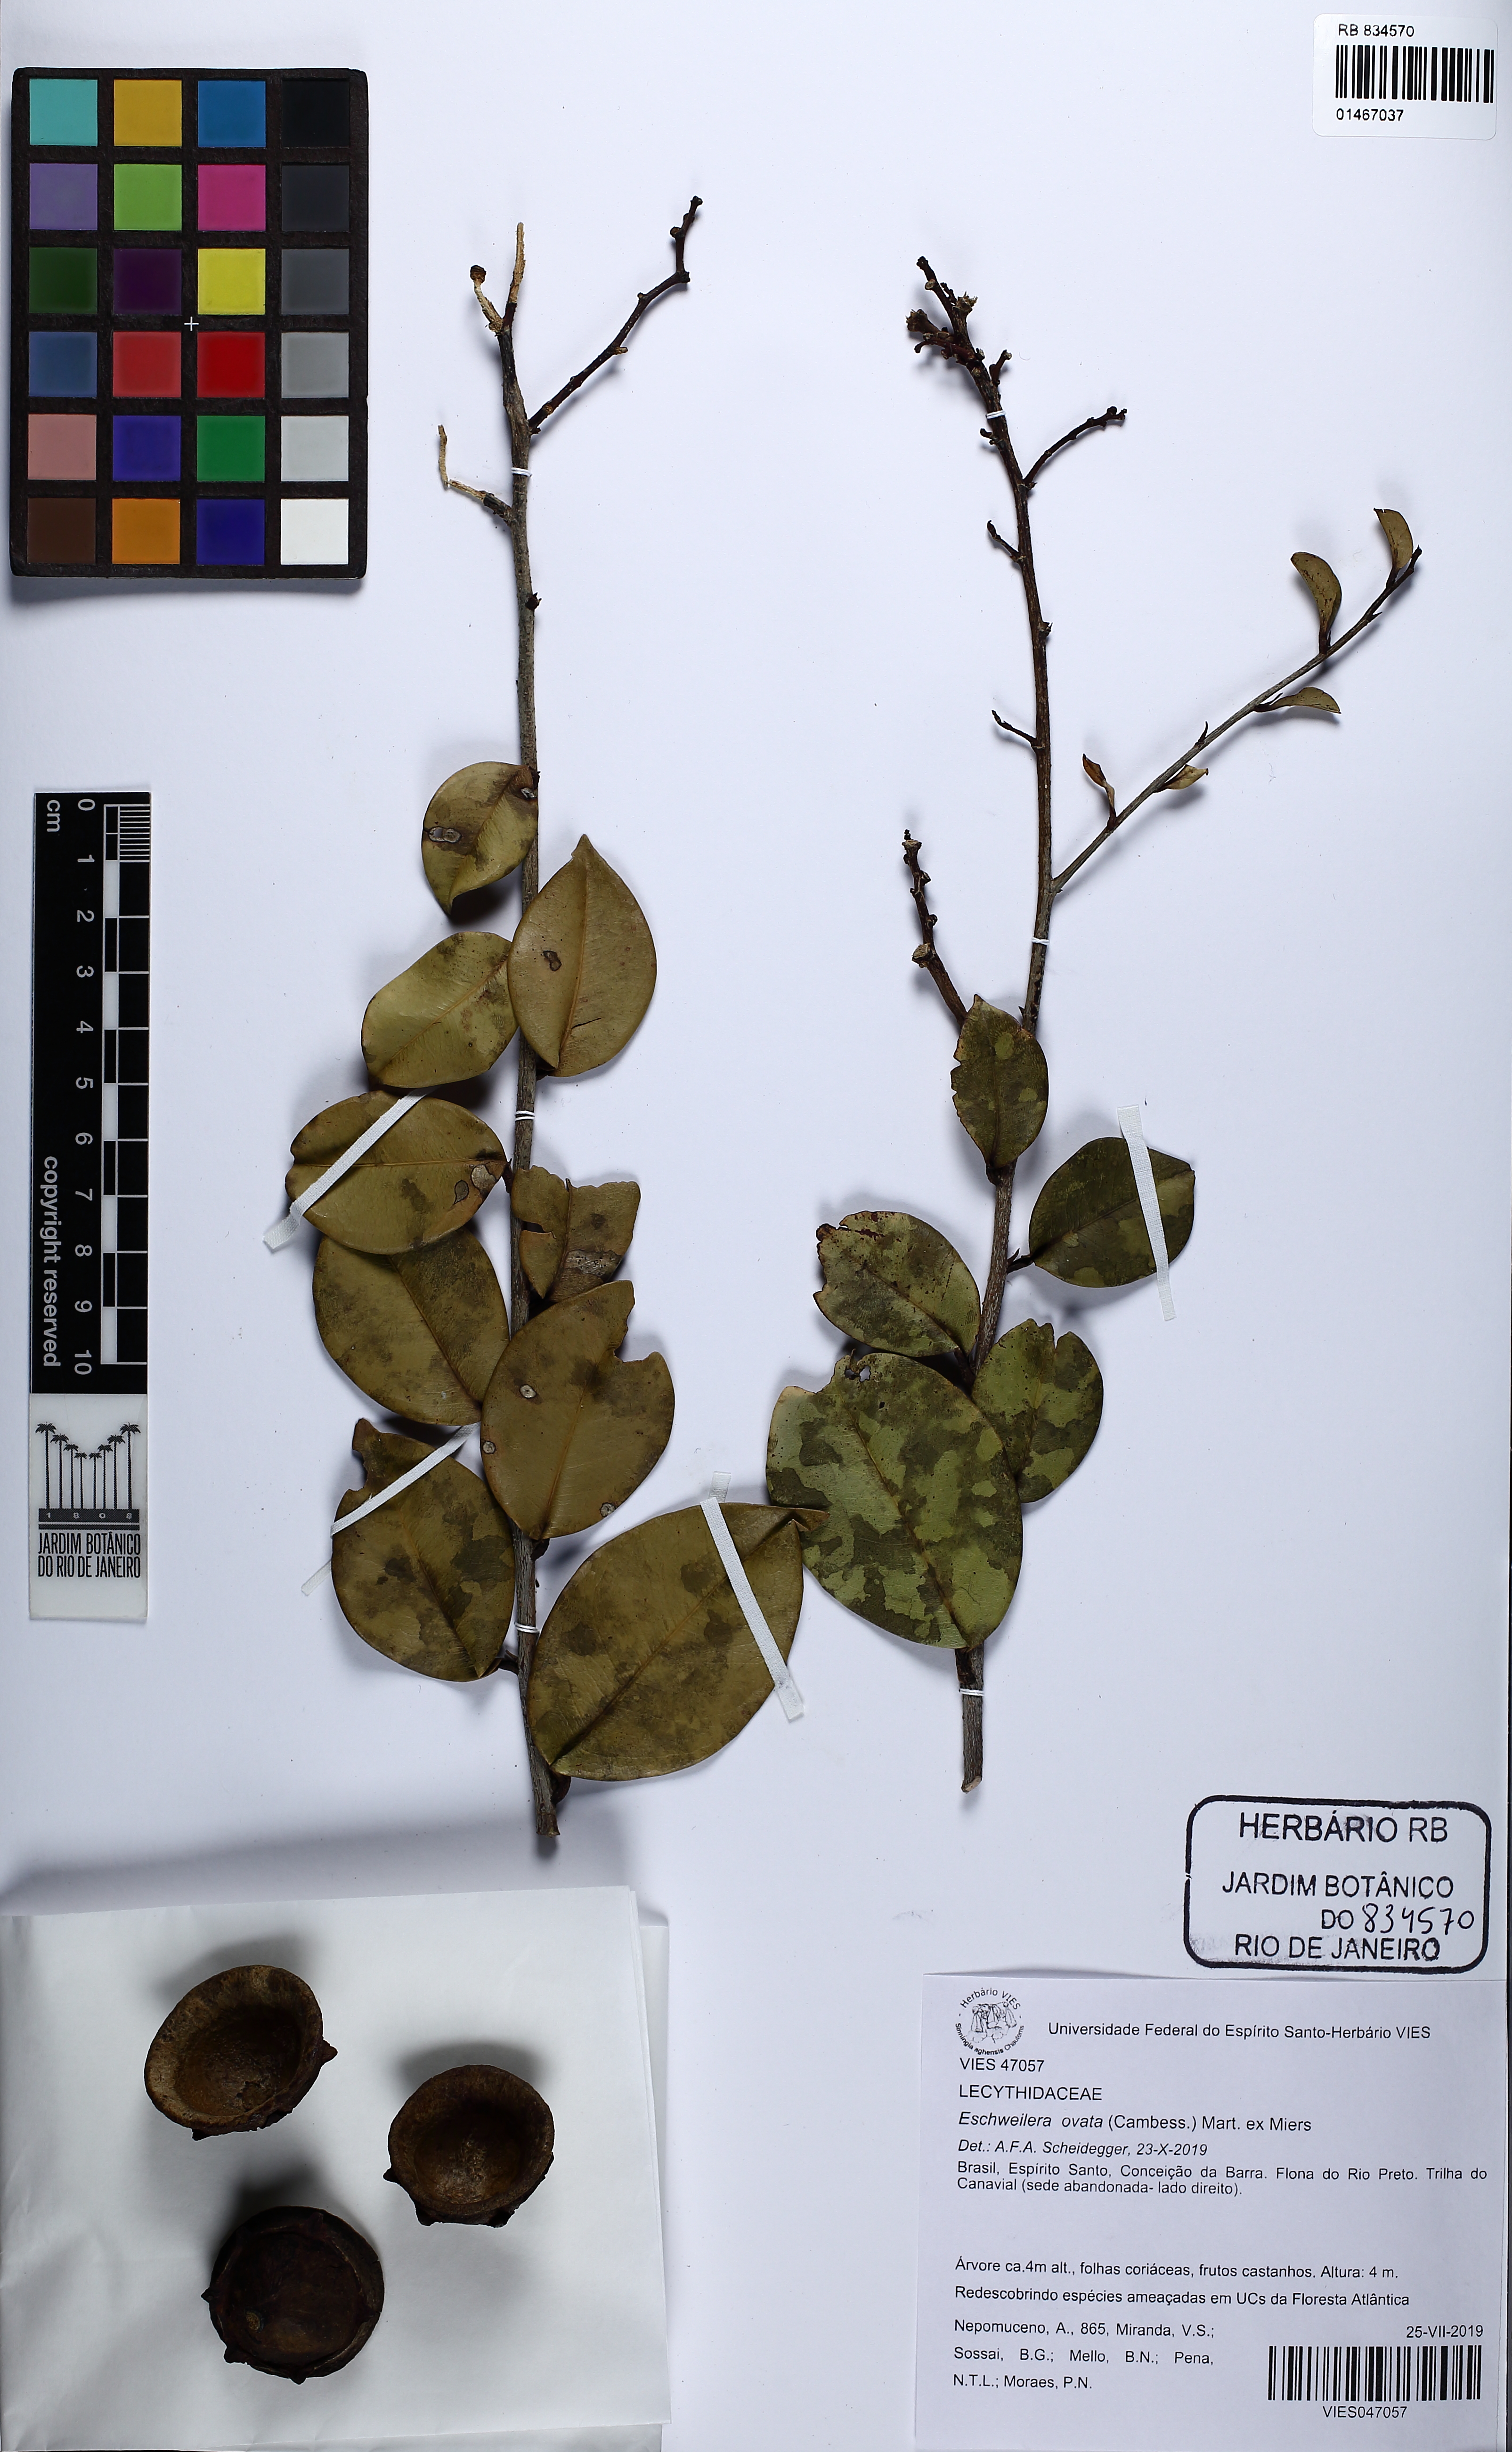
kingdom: Plantae
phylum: Tracheophyta
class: Magnoliopsida
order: Ericales
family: Lecythidaceae
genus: Eschweilera
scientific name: Eschweilera ovata
